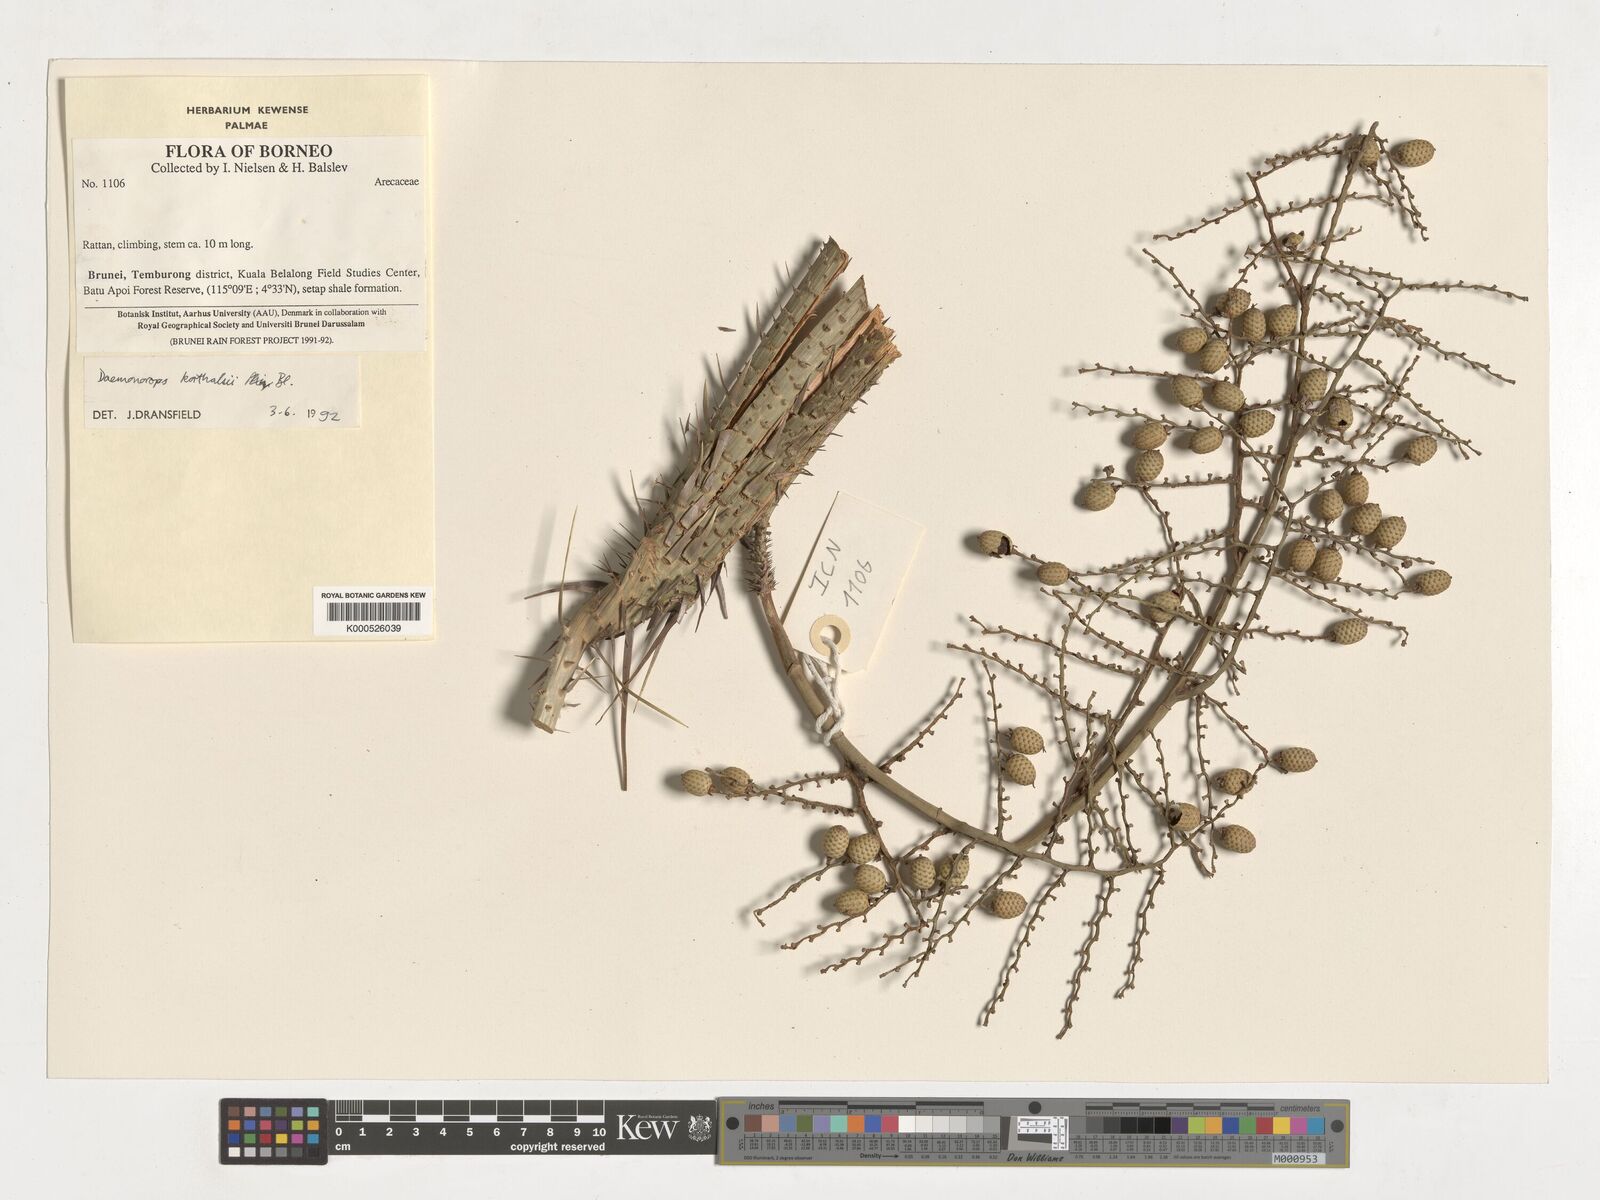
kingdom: Plantae
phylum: Tracheophyta
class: Liliopsida
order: Arecales
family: Arecaceae
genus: Calamus
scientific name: Calamus hirsutus
